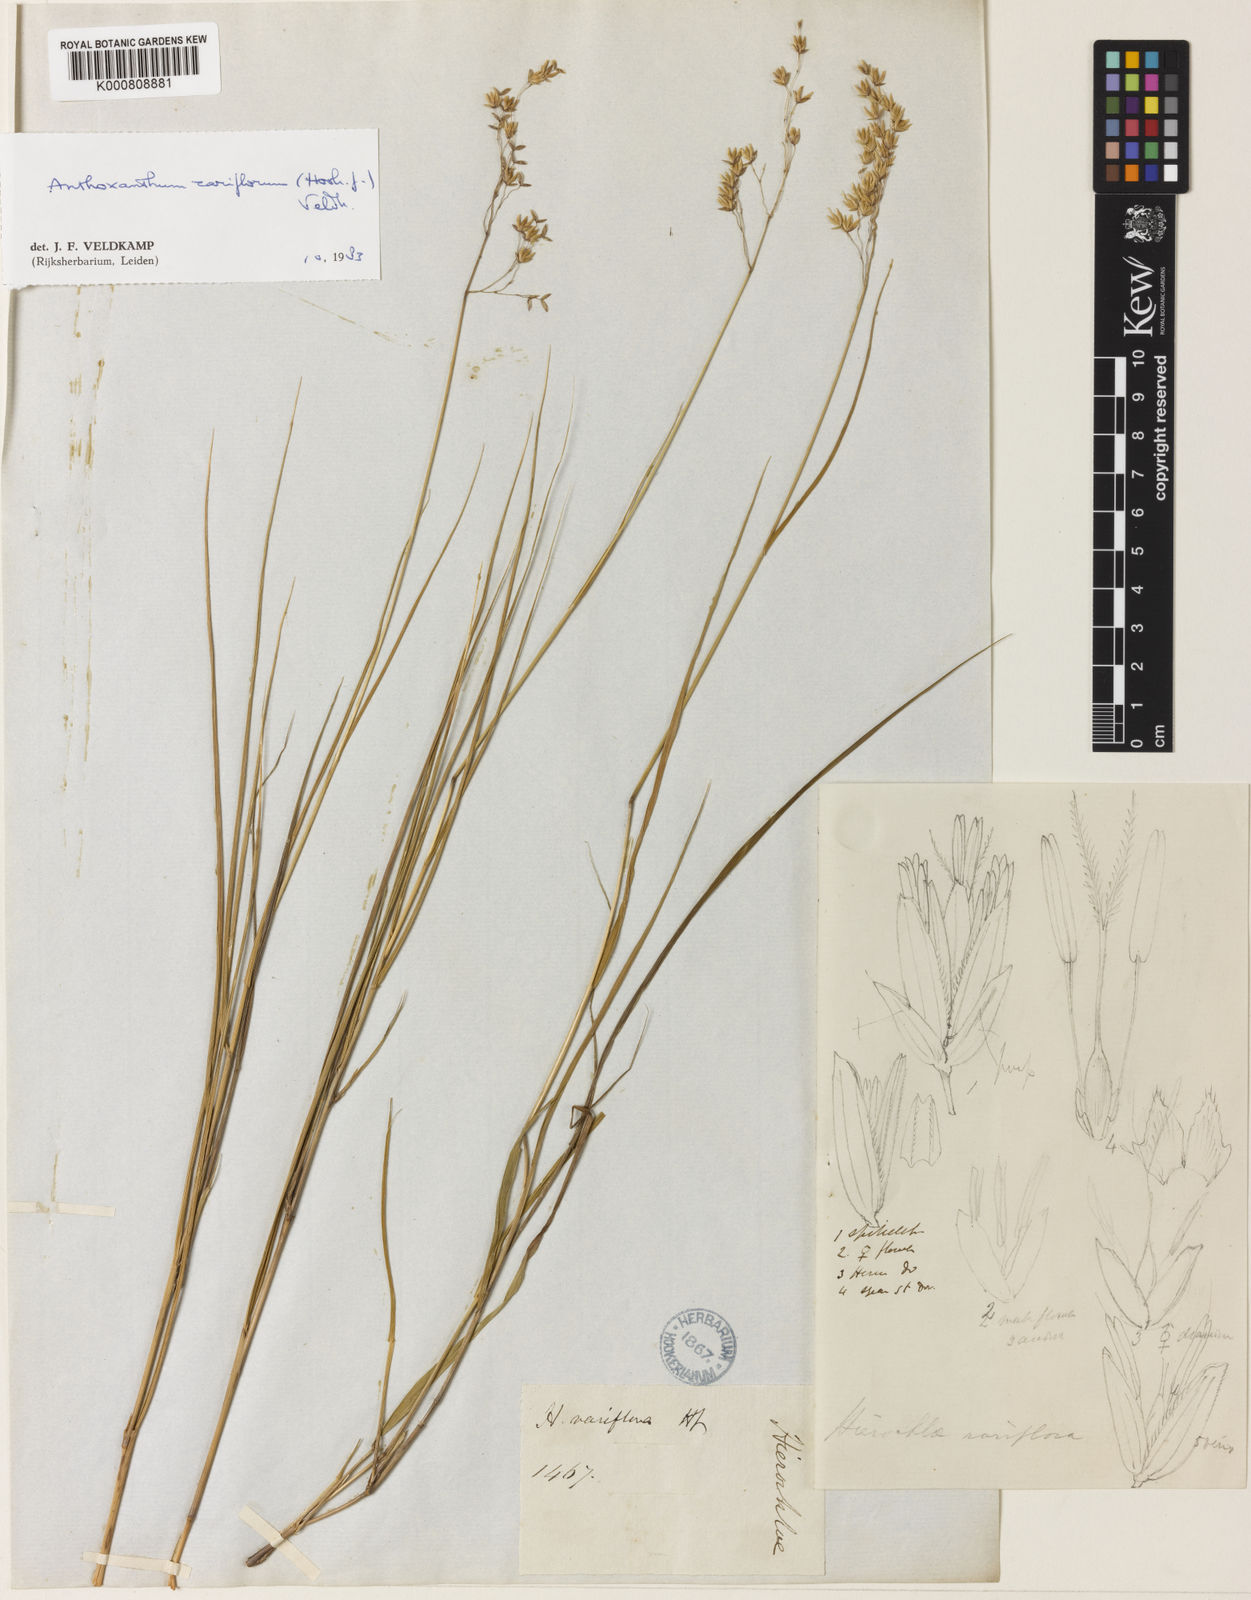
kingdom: Plantae
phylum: Tracheophyta
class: Liliopsida
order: Poales
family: Poaceae
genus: Anthoxanthum
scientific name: Anthoxanthum rariflorum
